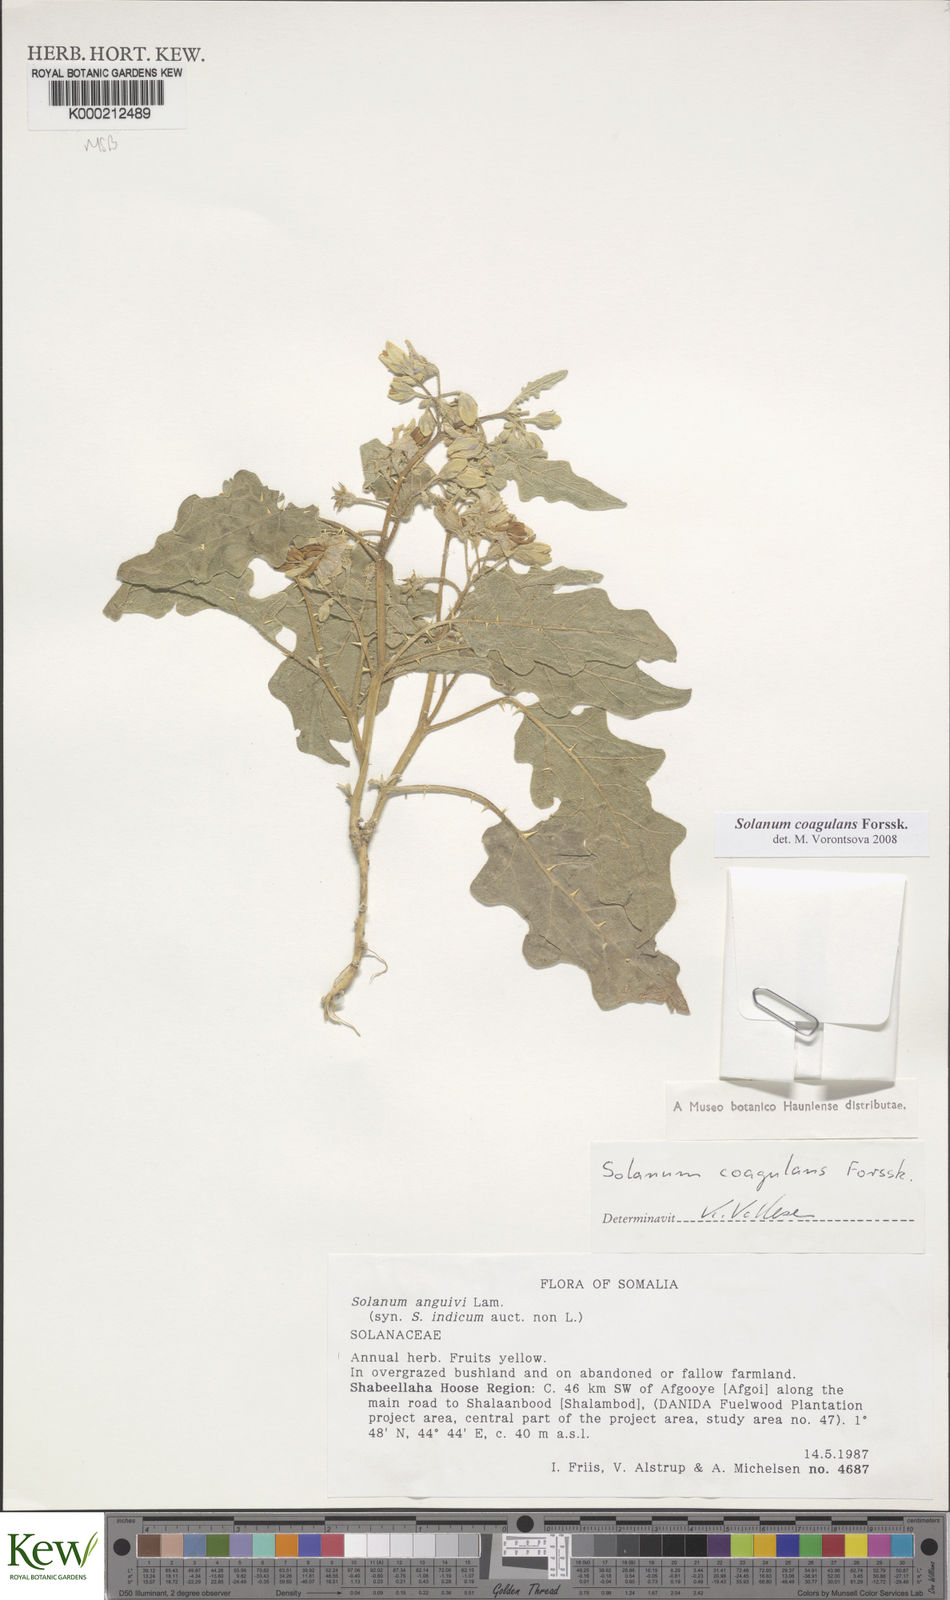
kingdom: Plantae
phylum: Tracheophyta
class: Magnoliopsida
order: Solanales
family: Solanaceae
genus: Solanum
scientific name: Solanum coagulans
